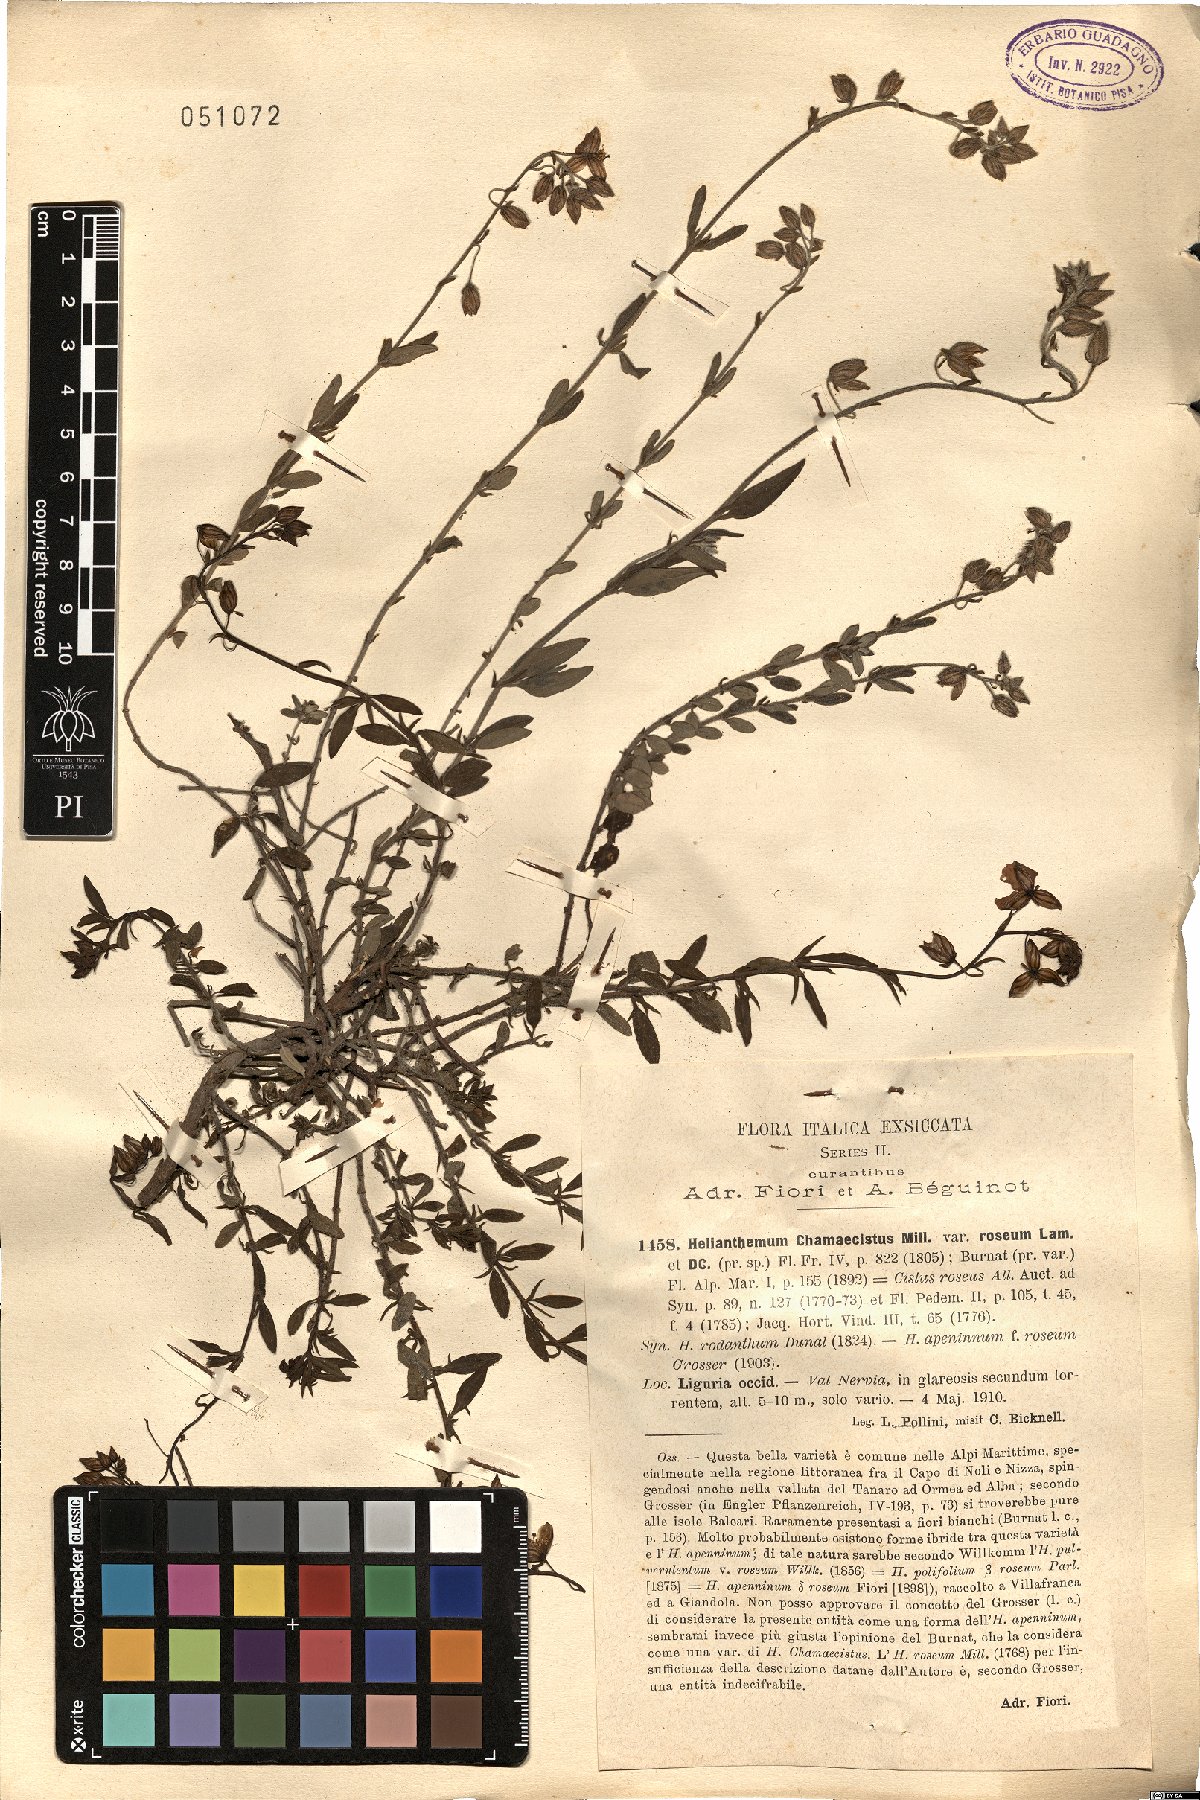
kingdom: Plantae
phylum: Tracheophyta
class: Magnoliopsida
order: Malvales
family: Cistaceae
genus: Helianthemum
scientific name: Helianthemum nummularium
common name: Common rock-rose
